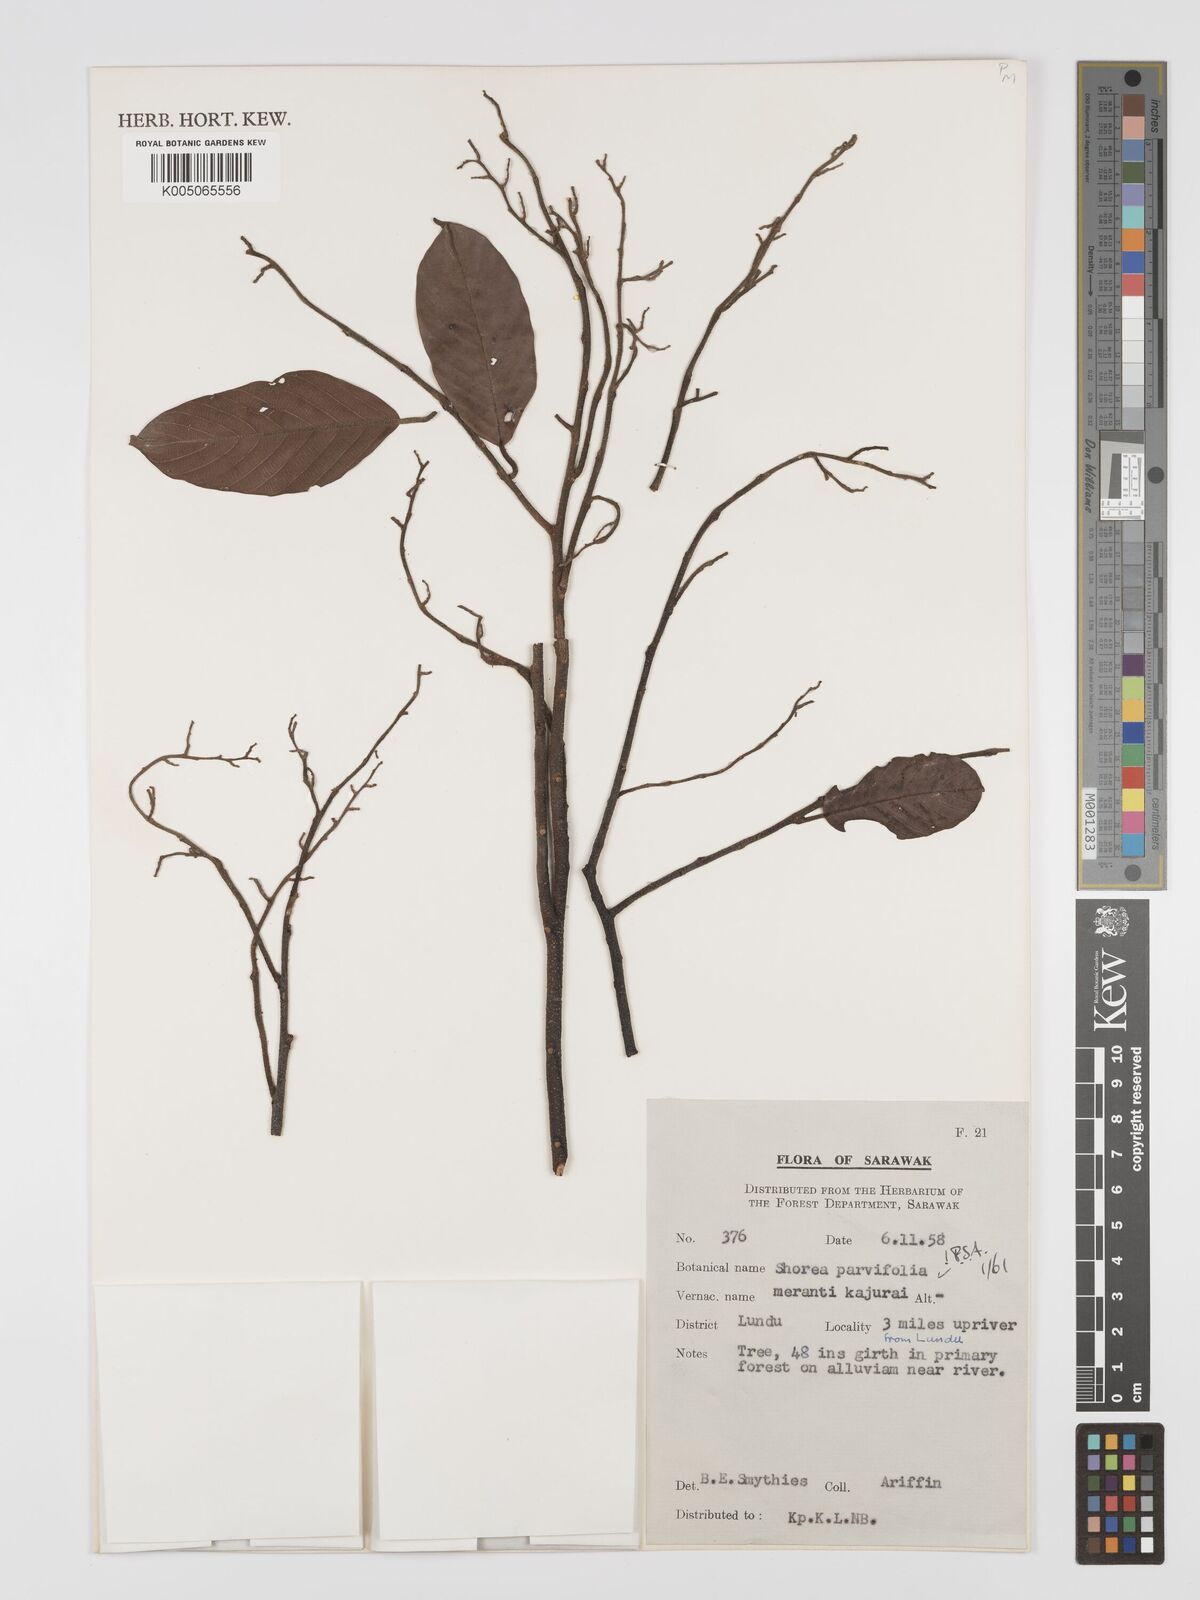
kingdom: Plantae
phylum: Tracheophyta
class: Magnoliopsida
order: Malvales
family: Dipterocarpaceae
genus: Shorea
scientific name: Shorea parvifolia
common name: Light red meranti
